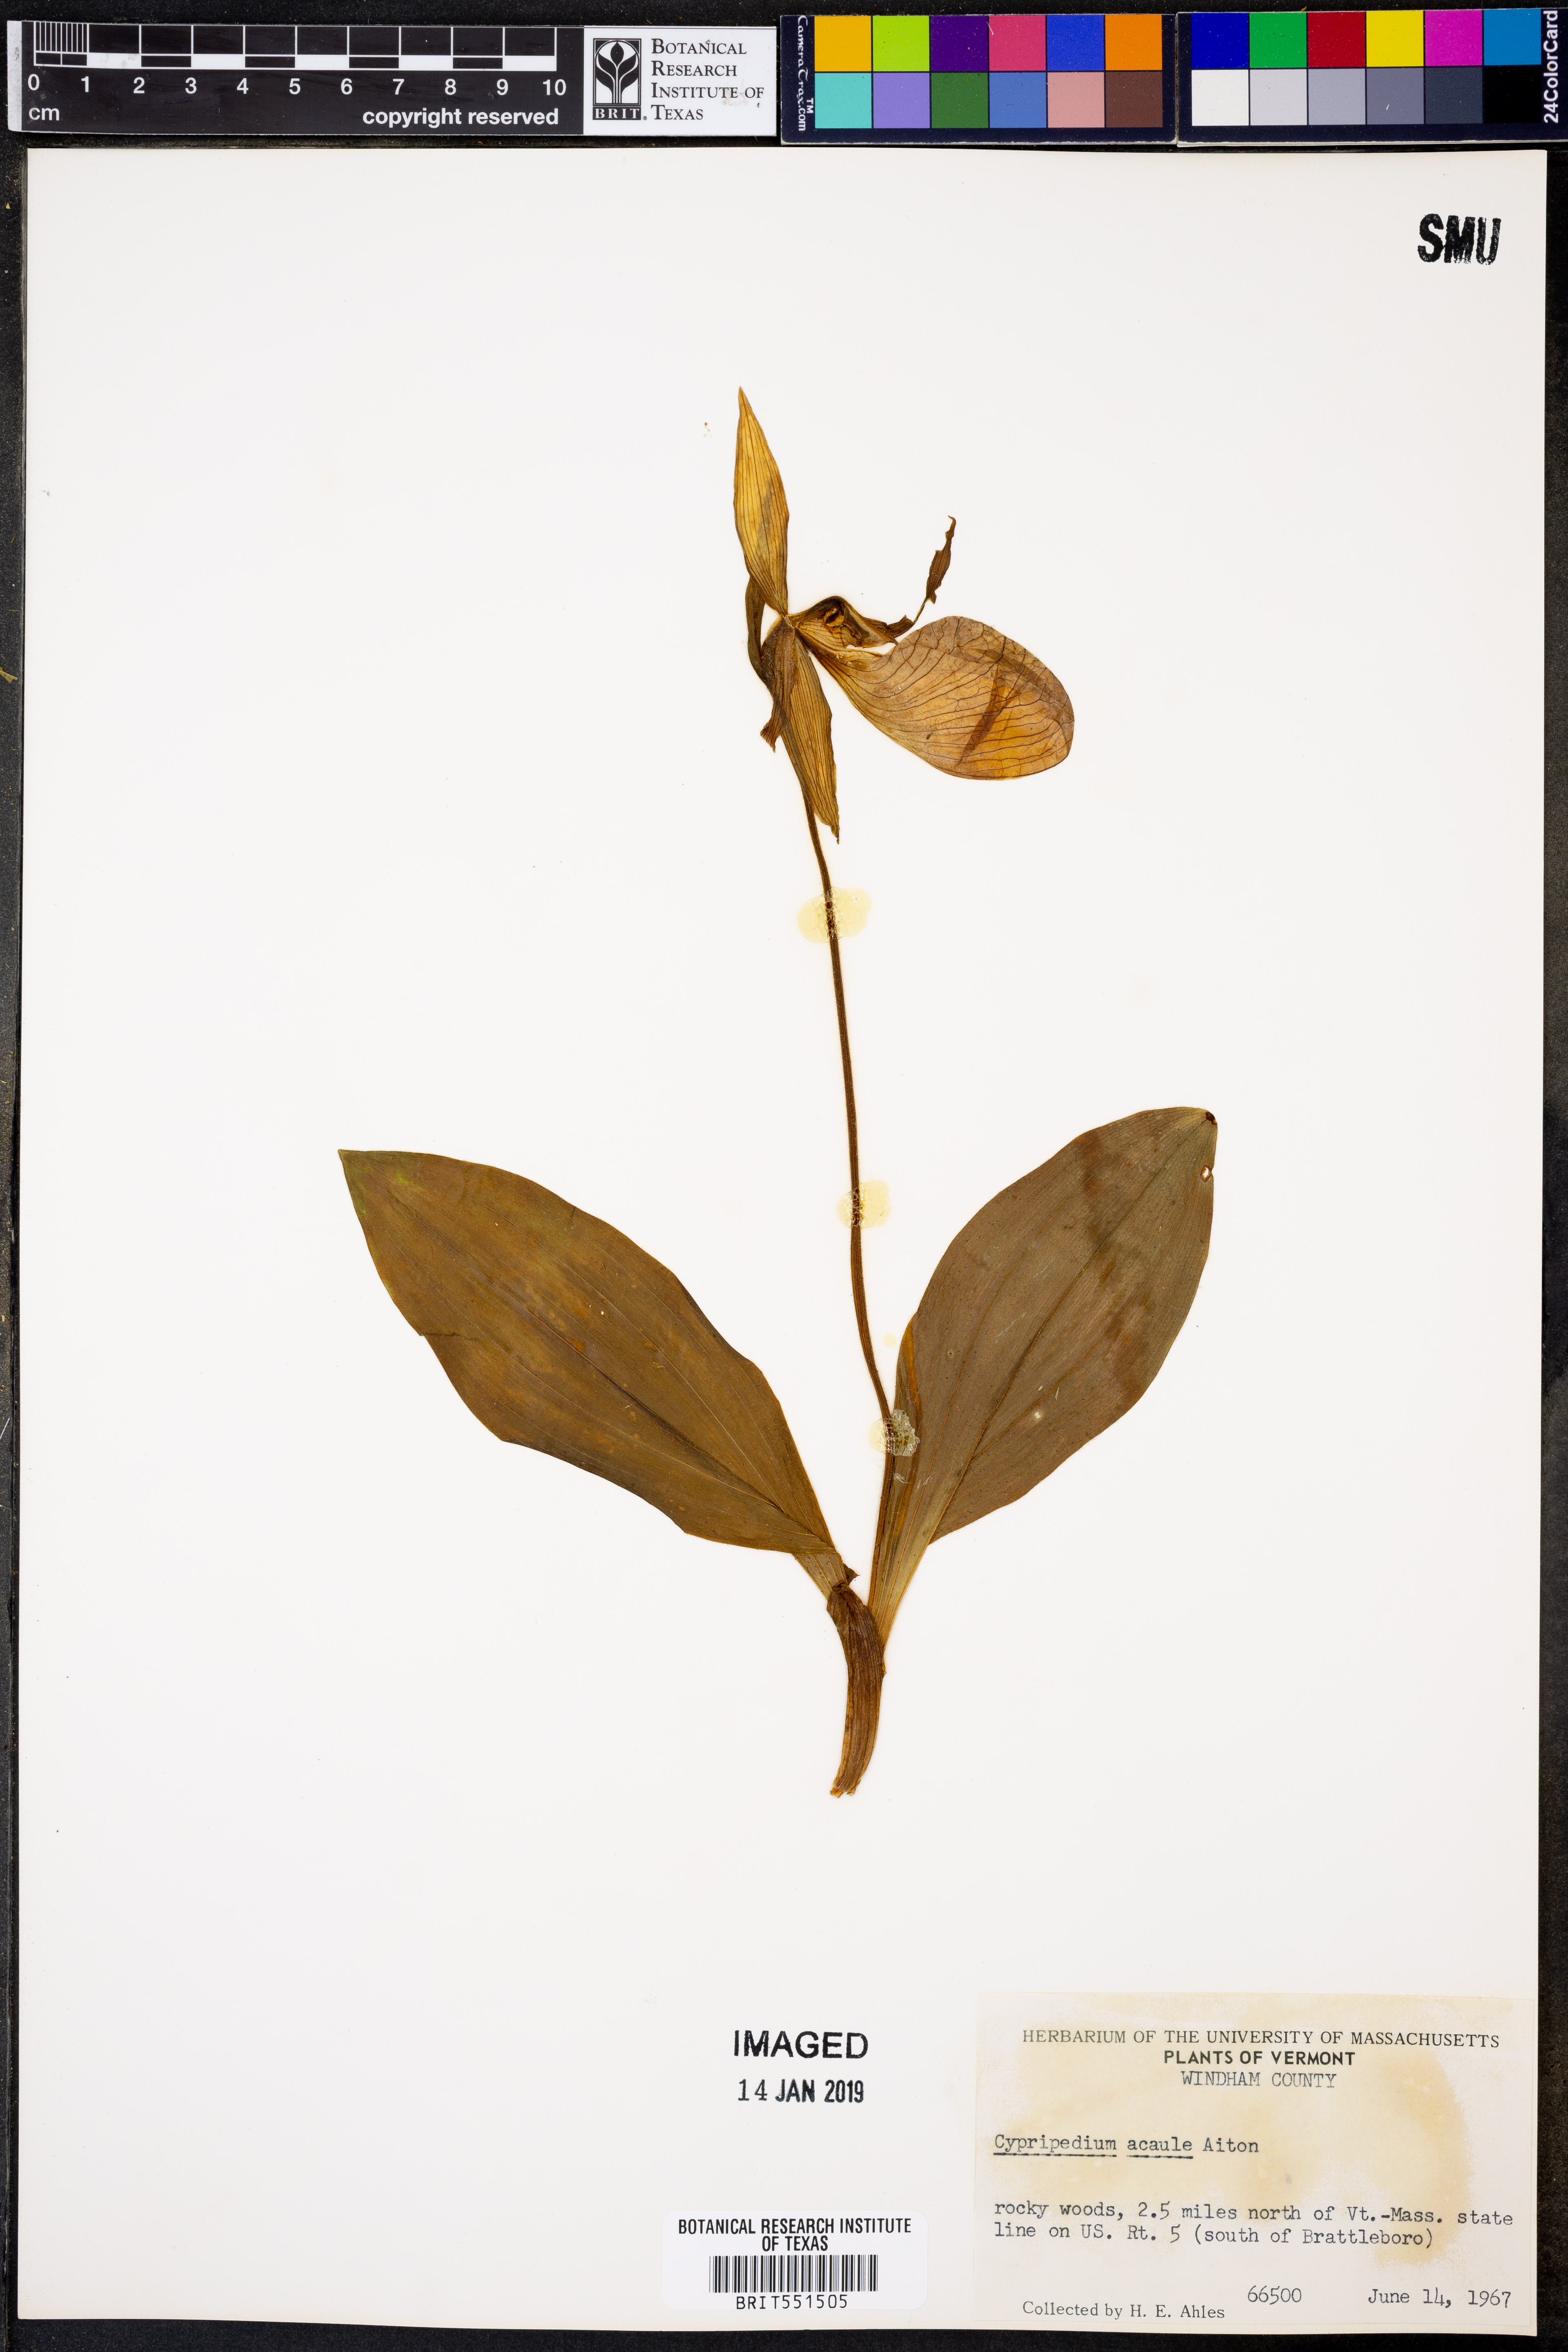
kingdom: Plantae
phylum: Tracheophyta
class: Liliopsida
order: Asparagales
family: Orchidaceae
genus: Cypripedium
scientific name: Cypripedium acaule
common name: Pink lady's-slipper
